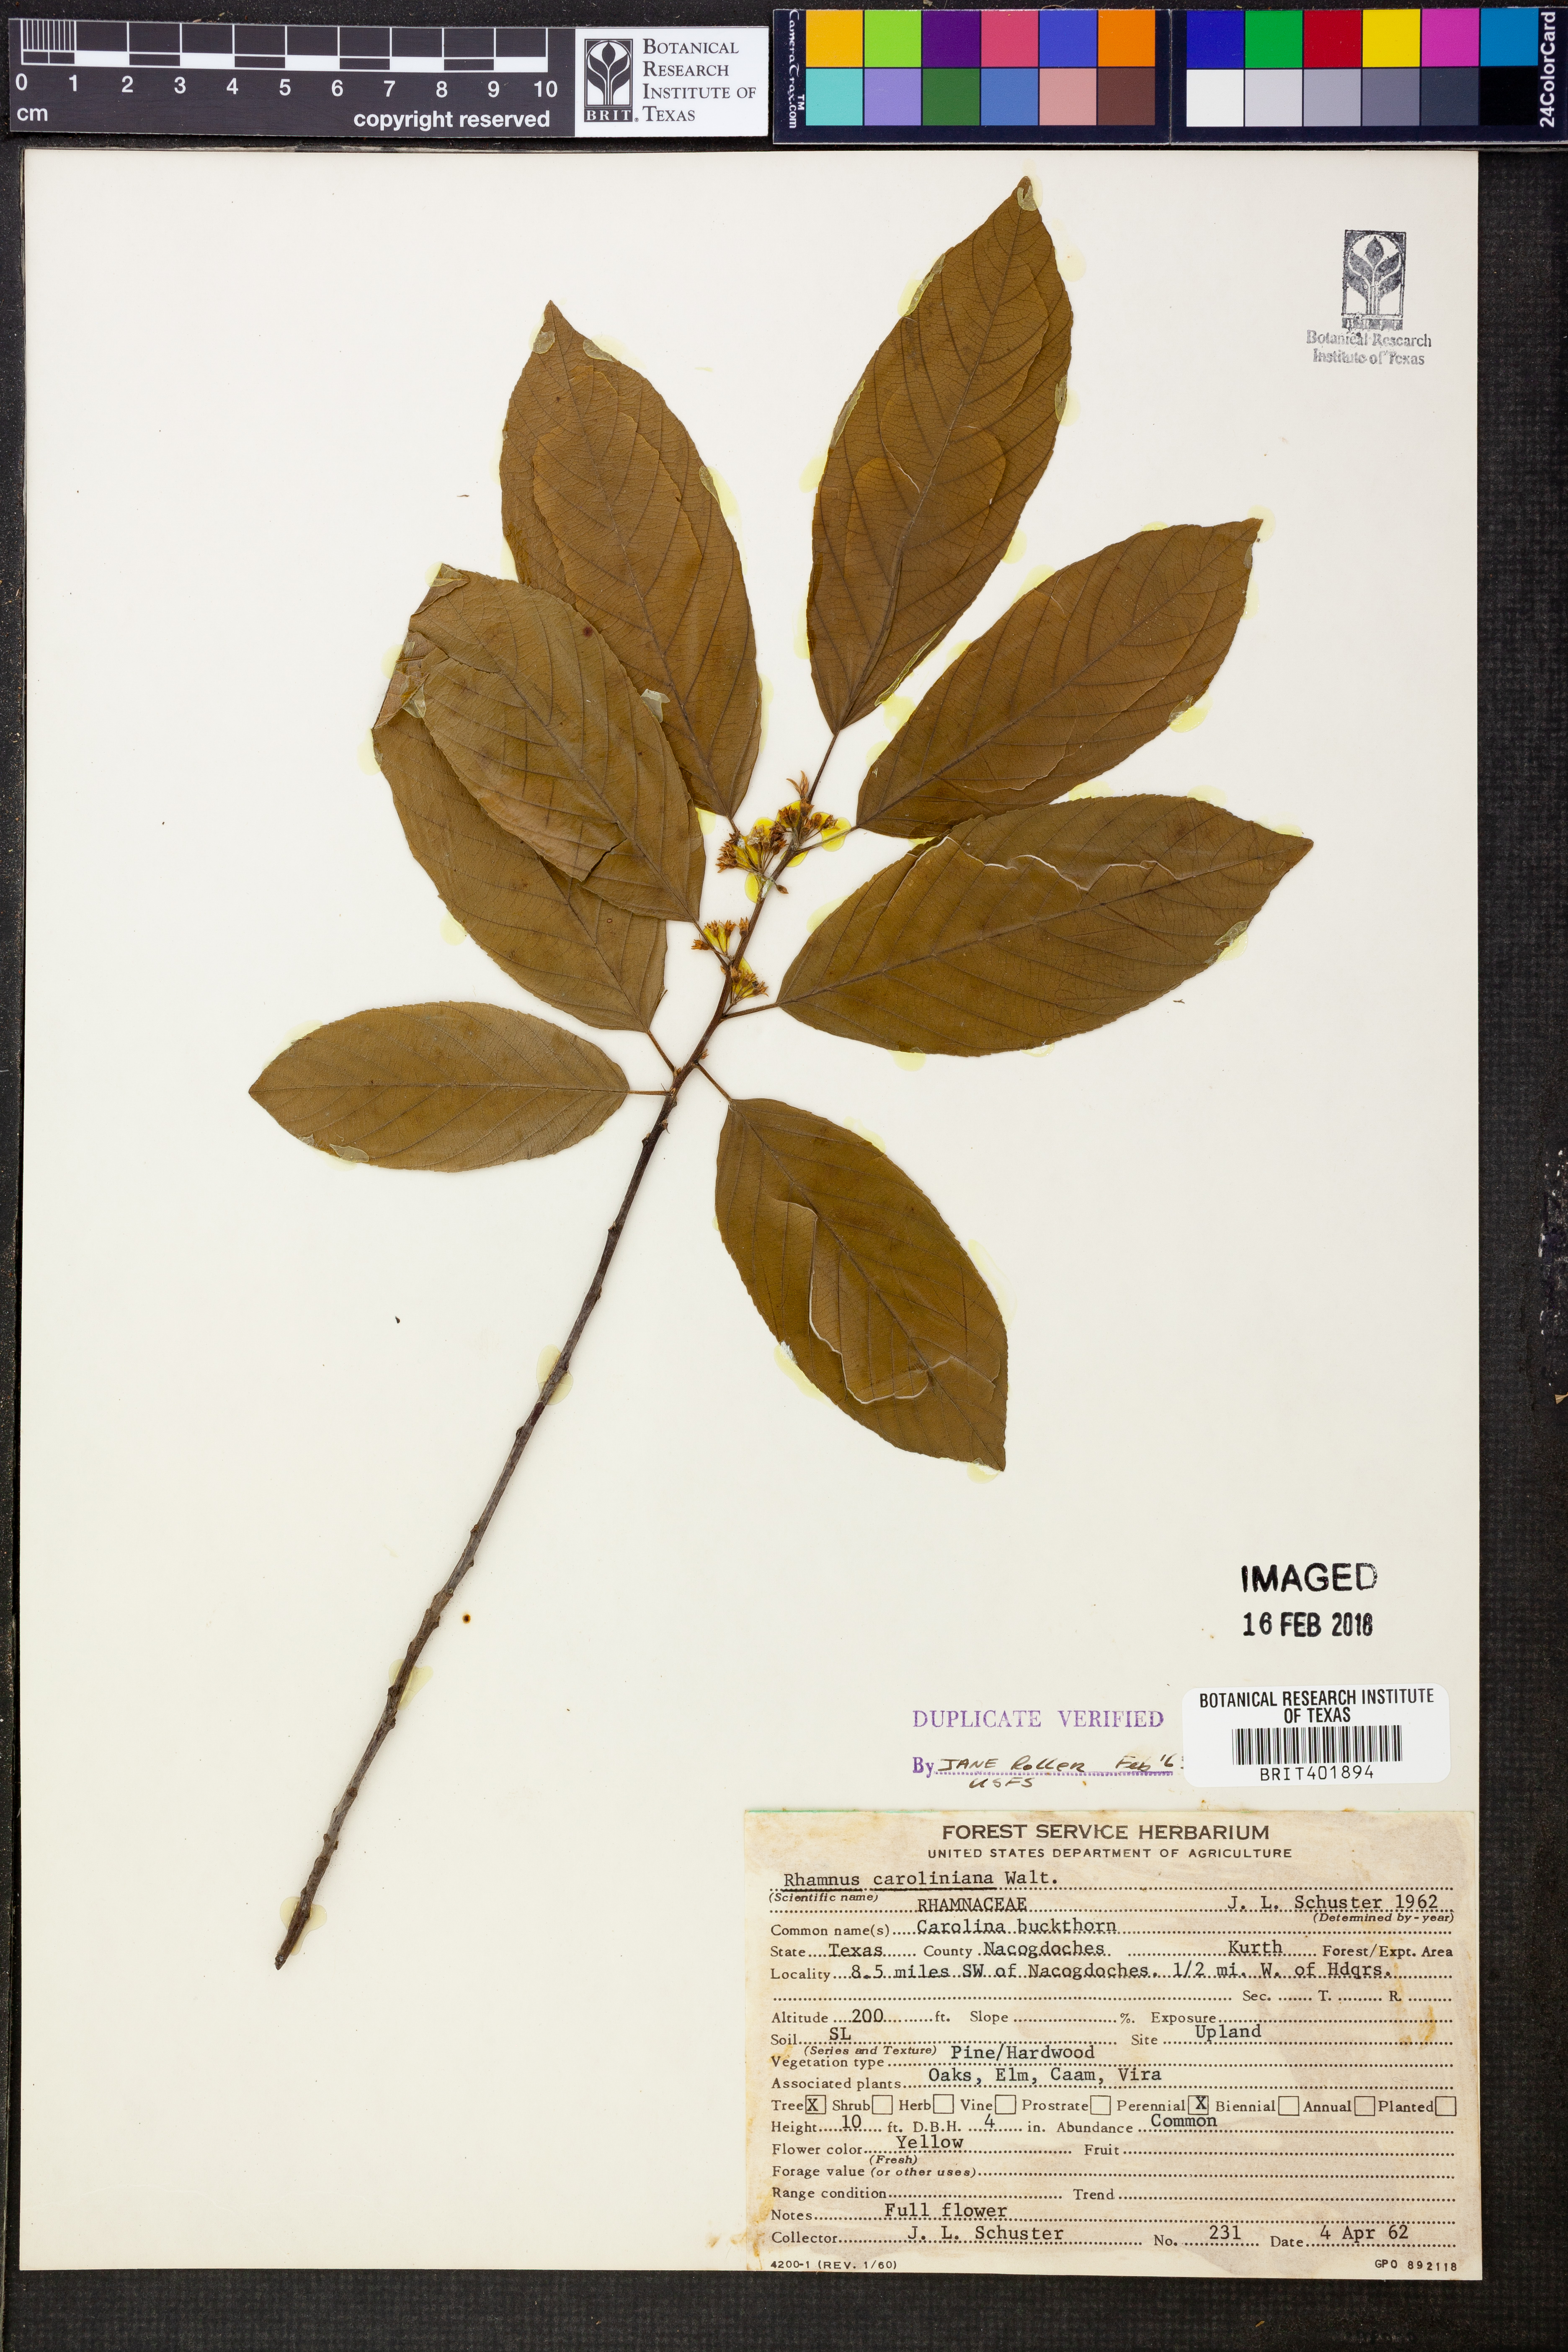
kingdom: Plantae
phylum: Tracheophyta
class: Magnoliopsida
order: Rosales
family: Rhamnaceae
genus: Frangula
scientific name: Frangula caroliniana
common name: Carolina buckthorn
